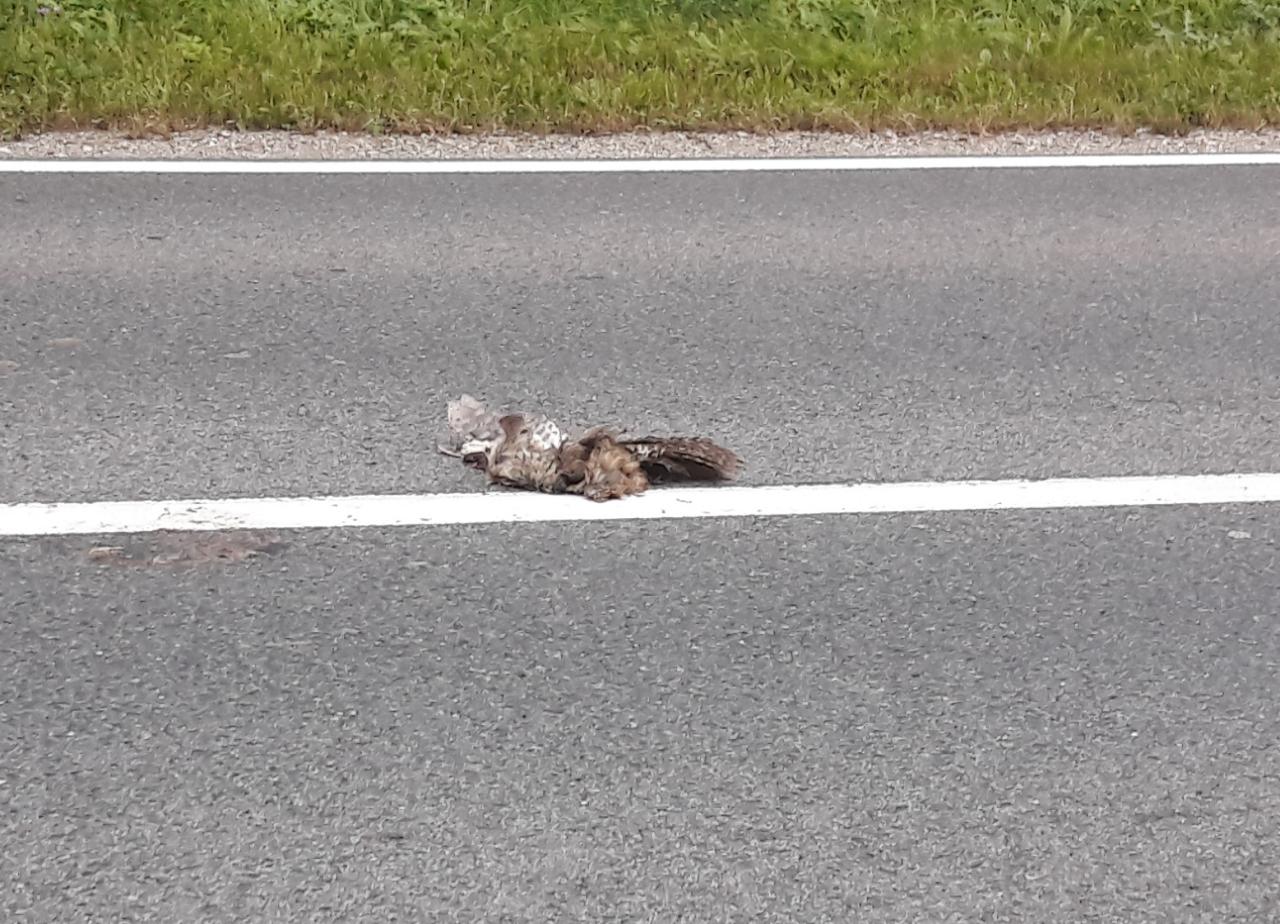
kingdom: Animalia
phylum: Chordata
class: Aves
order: Falconiformes
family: Falconidae
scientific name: Falconidae
